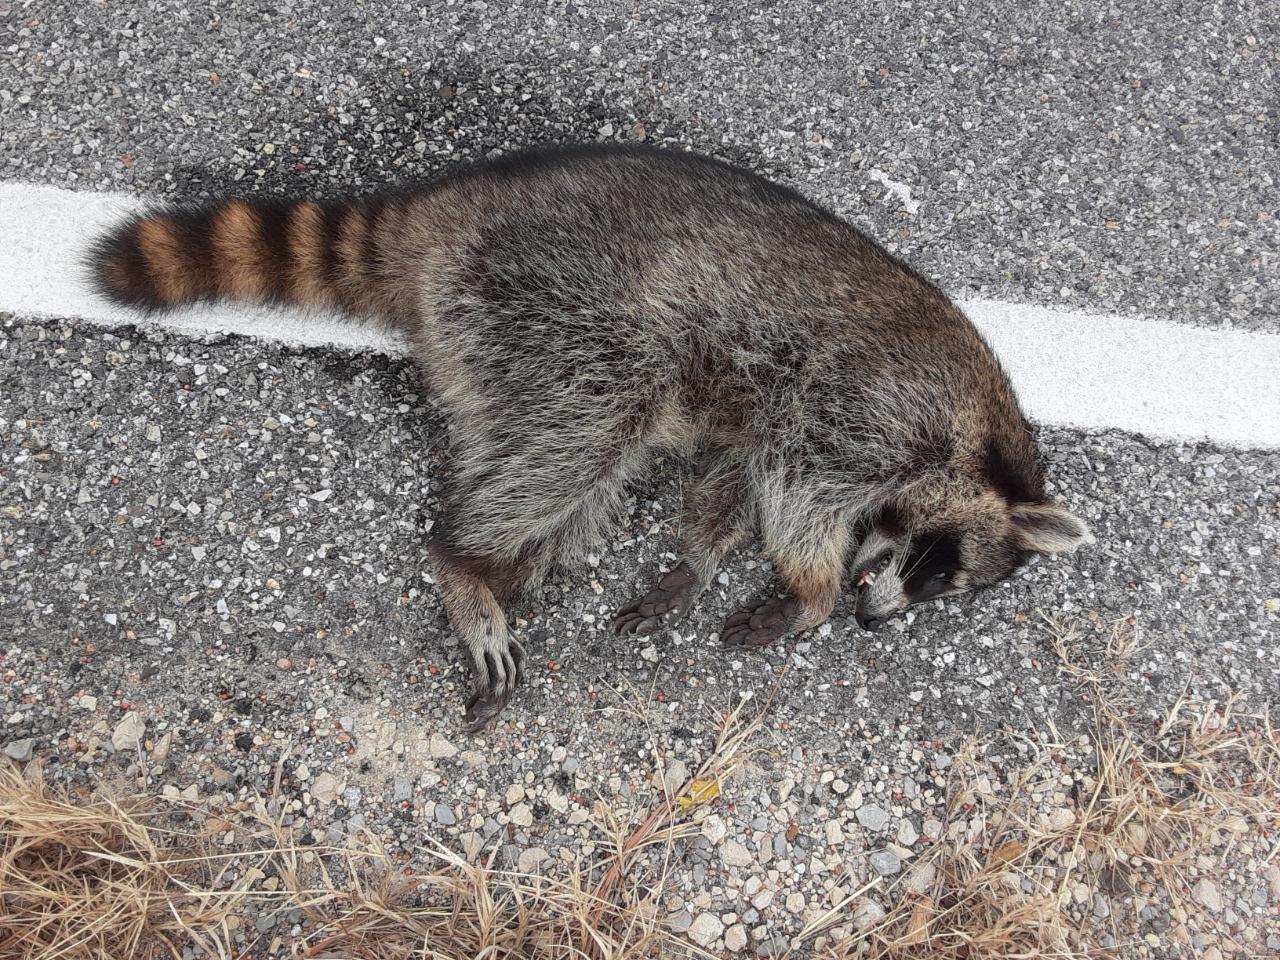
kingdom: Animalia
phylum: Chordata
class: Mammalia
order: Carnivora
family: Procyonidae
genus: Procyon
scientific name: Procyon lotor
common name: Raccoon
